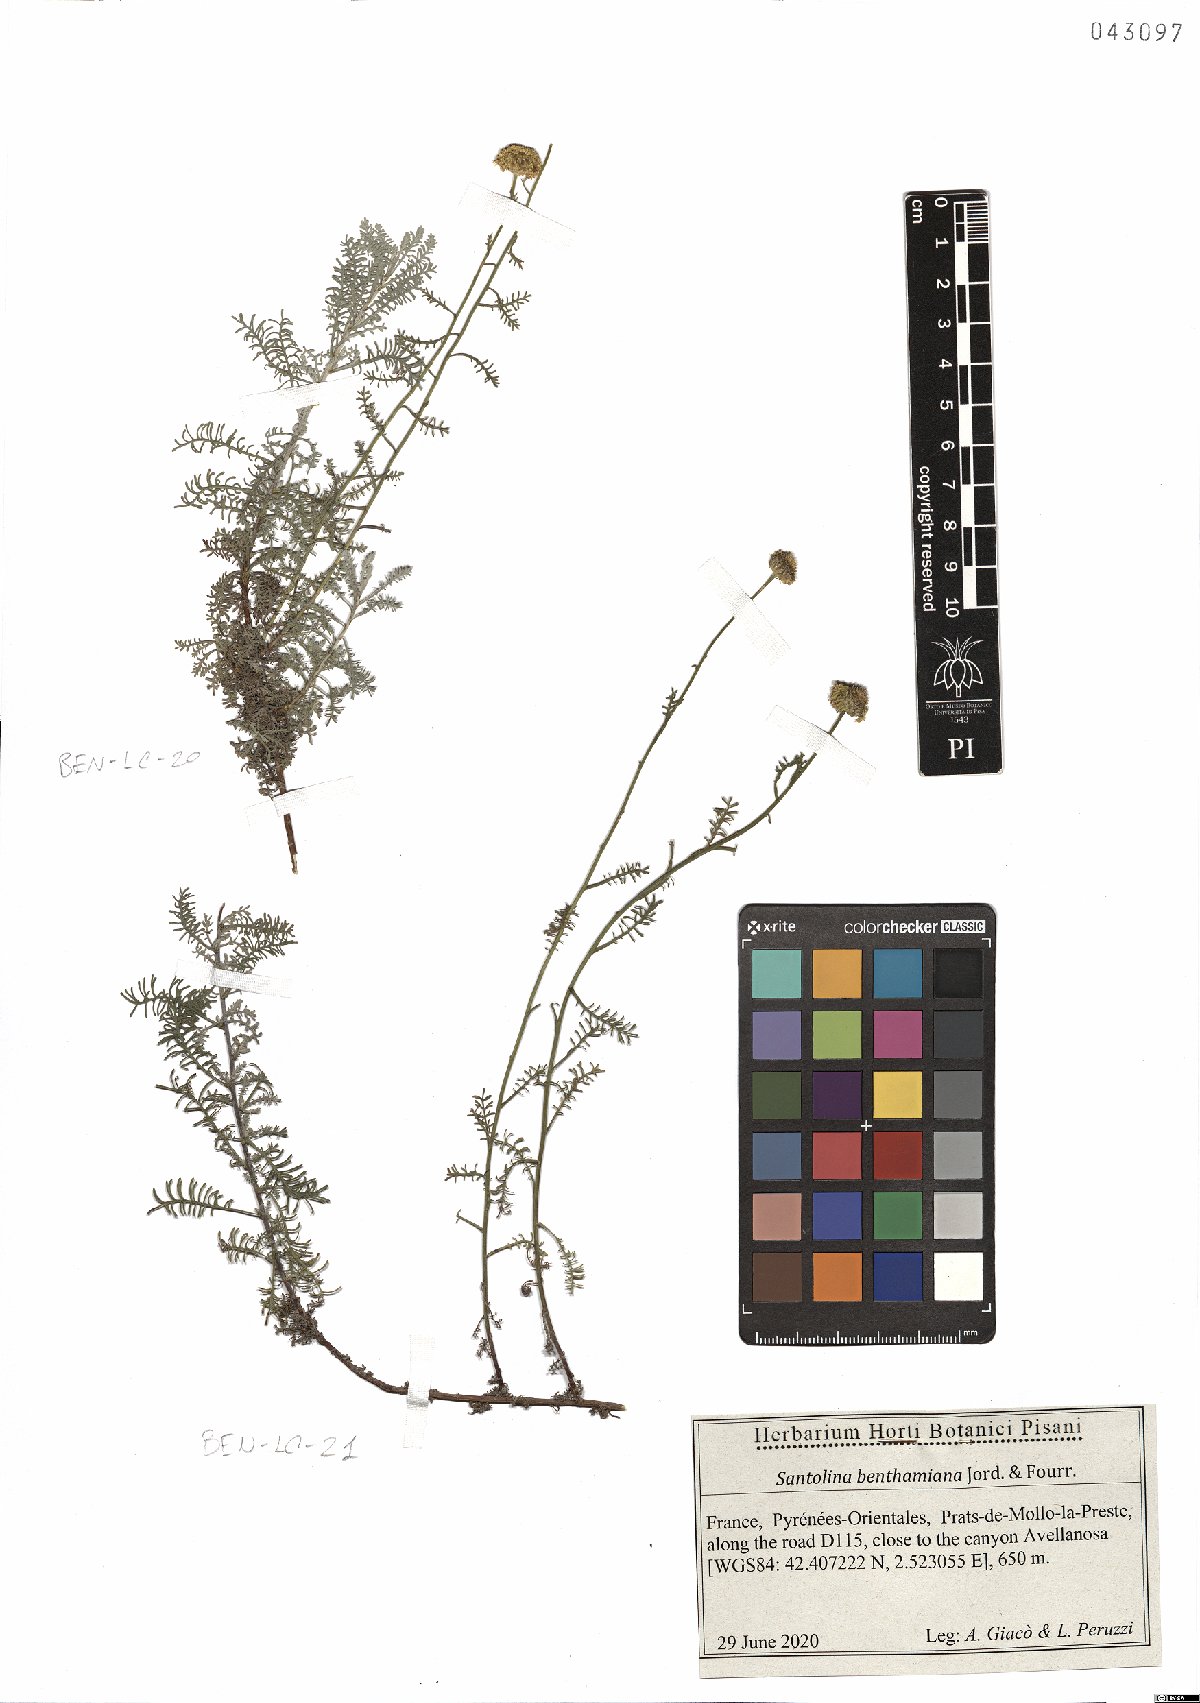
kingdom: Plantae
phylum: Tracheophyta
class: Magnoliopsida
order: Asterales
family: Asteraceae
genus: Santolina
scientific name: Santolina benthamiana
